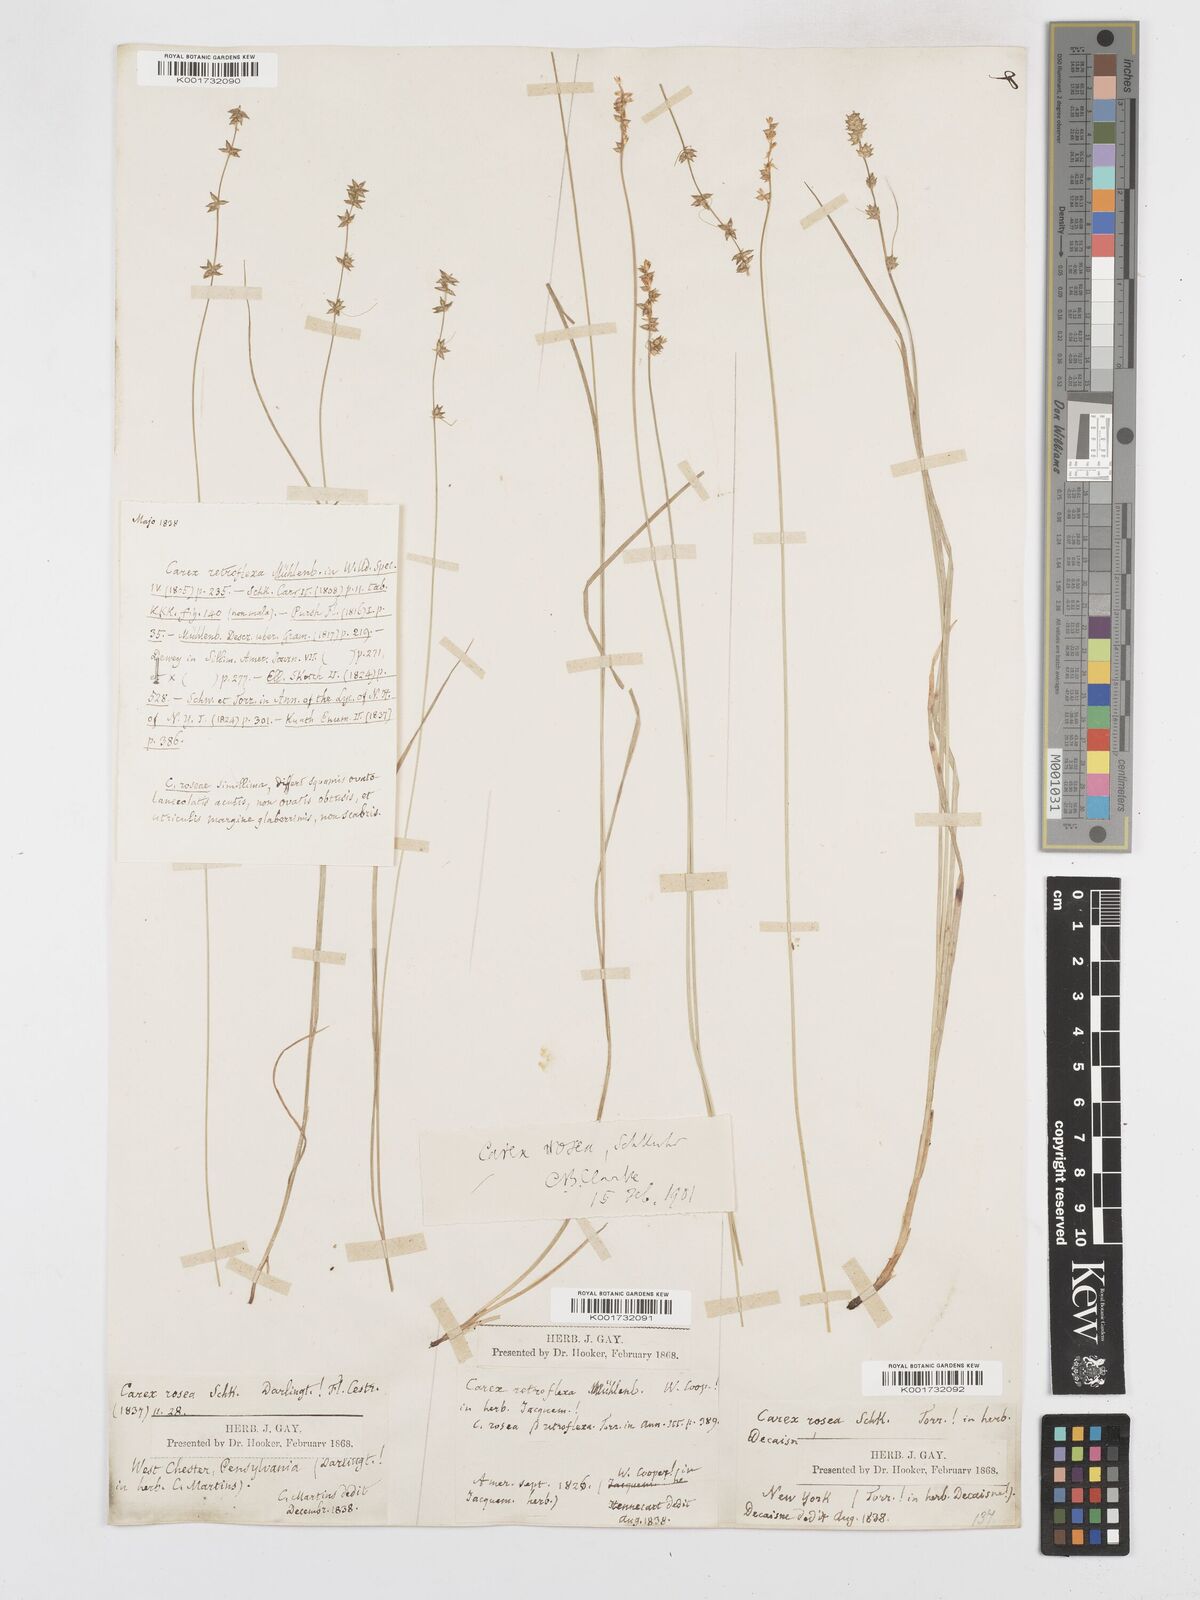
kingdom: Plantae
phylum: Tracheophyta
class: Liliopsida
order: Poales
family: Cyperaceae
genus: Carex
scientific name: Carex rosea
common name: Curly-styled wood sedge
